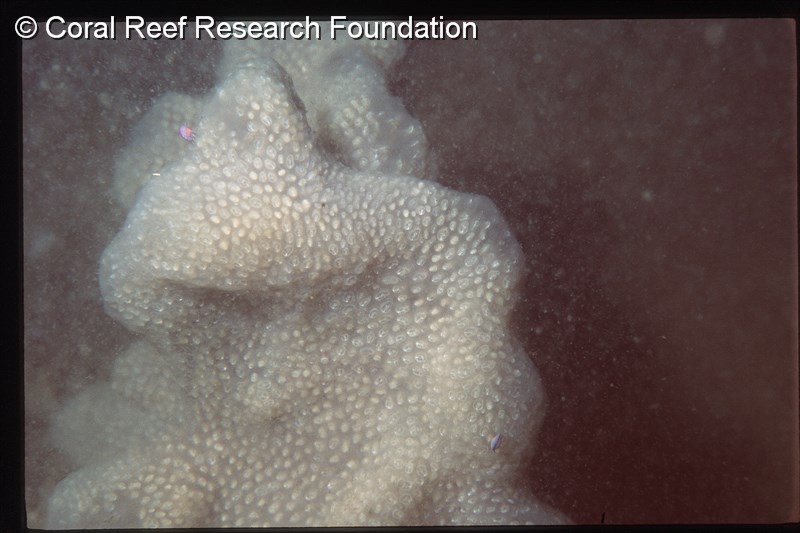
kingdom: Animalia
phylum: Chordata
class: Ascidiacea
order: Aplousobranchia
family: Pseudodistomidae
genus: Pseudodistoma
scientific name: Pseudodistoma
